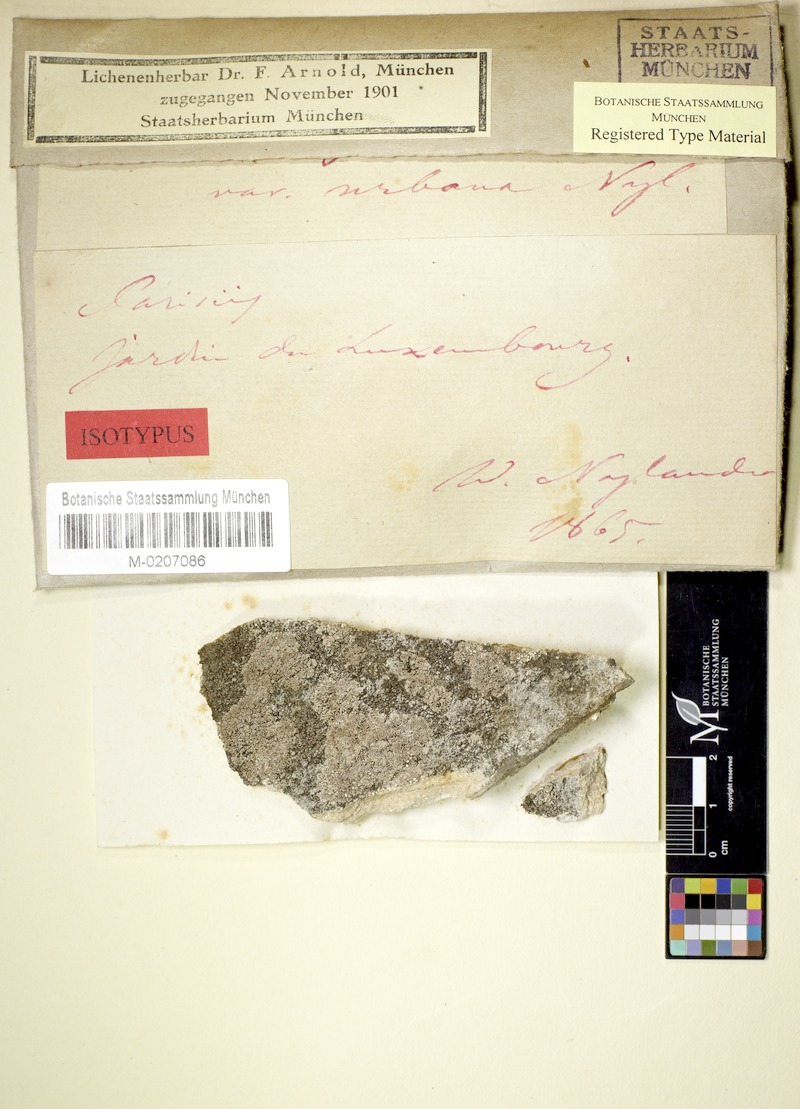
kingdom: Fungi
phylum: Ascomycota
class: Lecanoromycetes
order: Lecanorales
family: Lecanoraceae
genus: Polyozosia
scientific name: Polyozosia albescens
